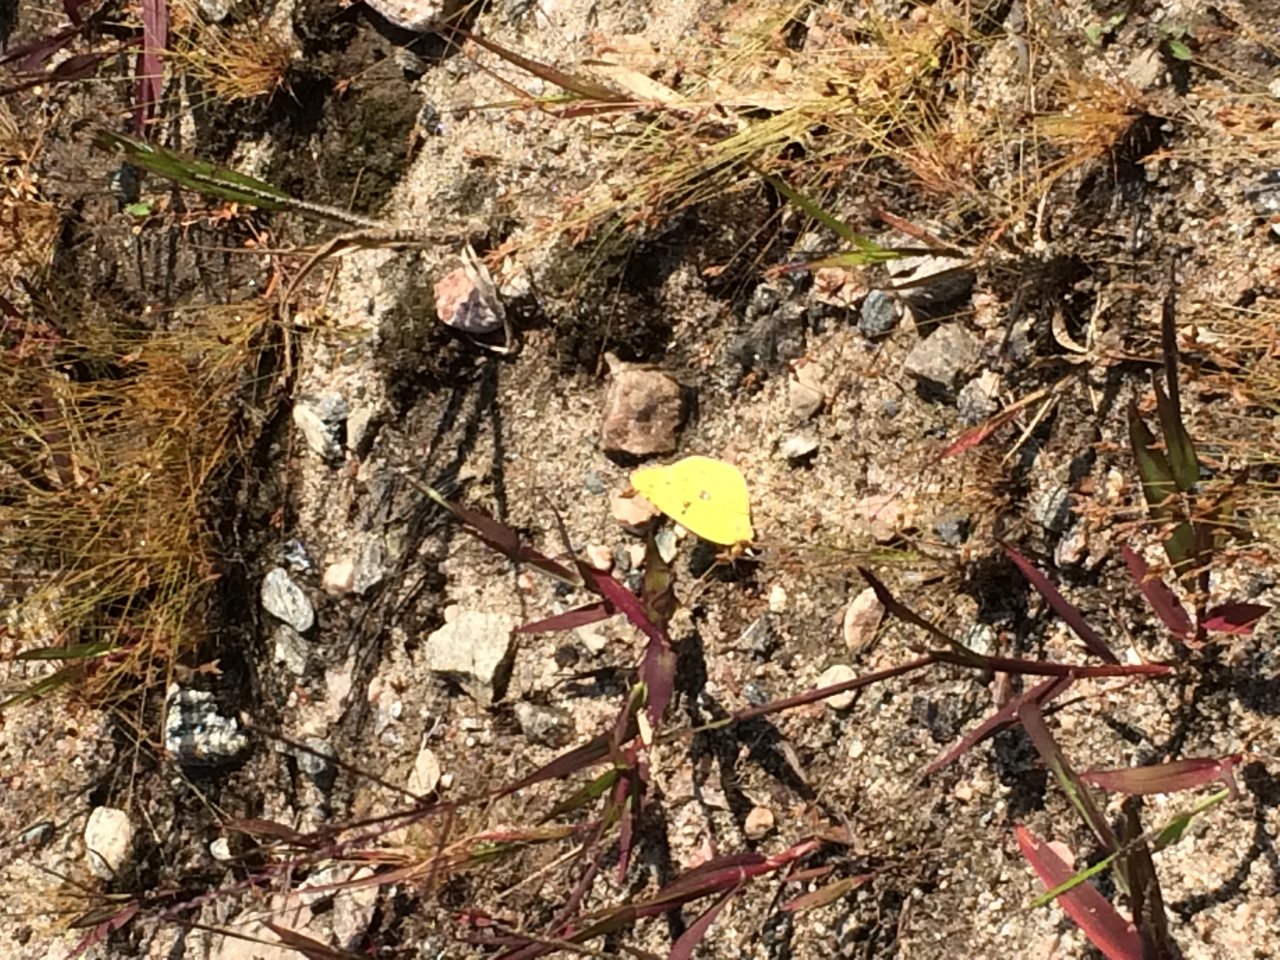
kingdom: Animalia
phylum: Arthropoda
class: Insecta
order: Lepidoptera
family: Pieridae
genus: Colias
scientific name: Colias philodice
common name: Clouded Sulphur
